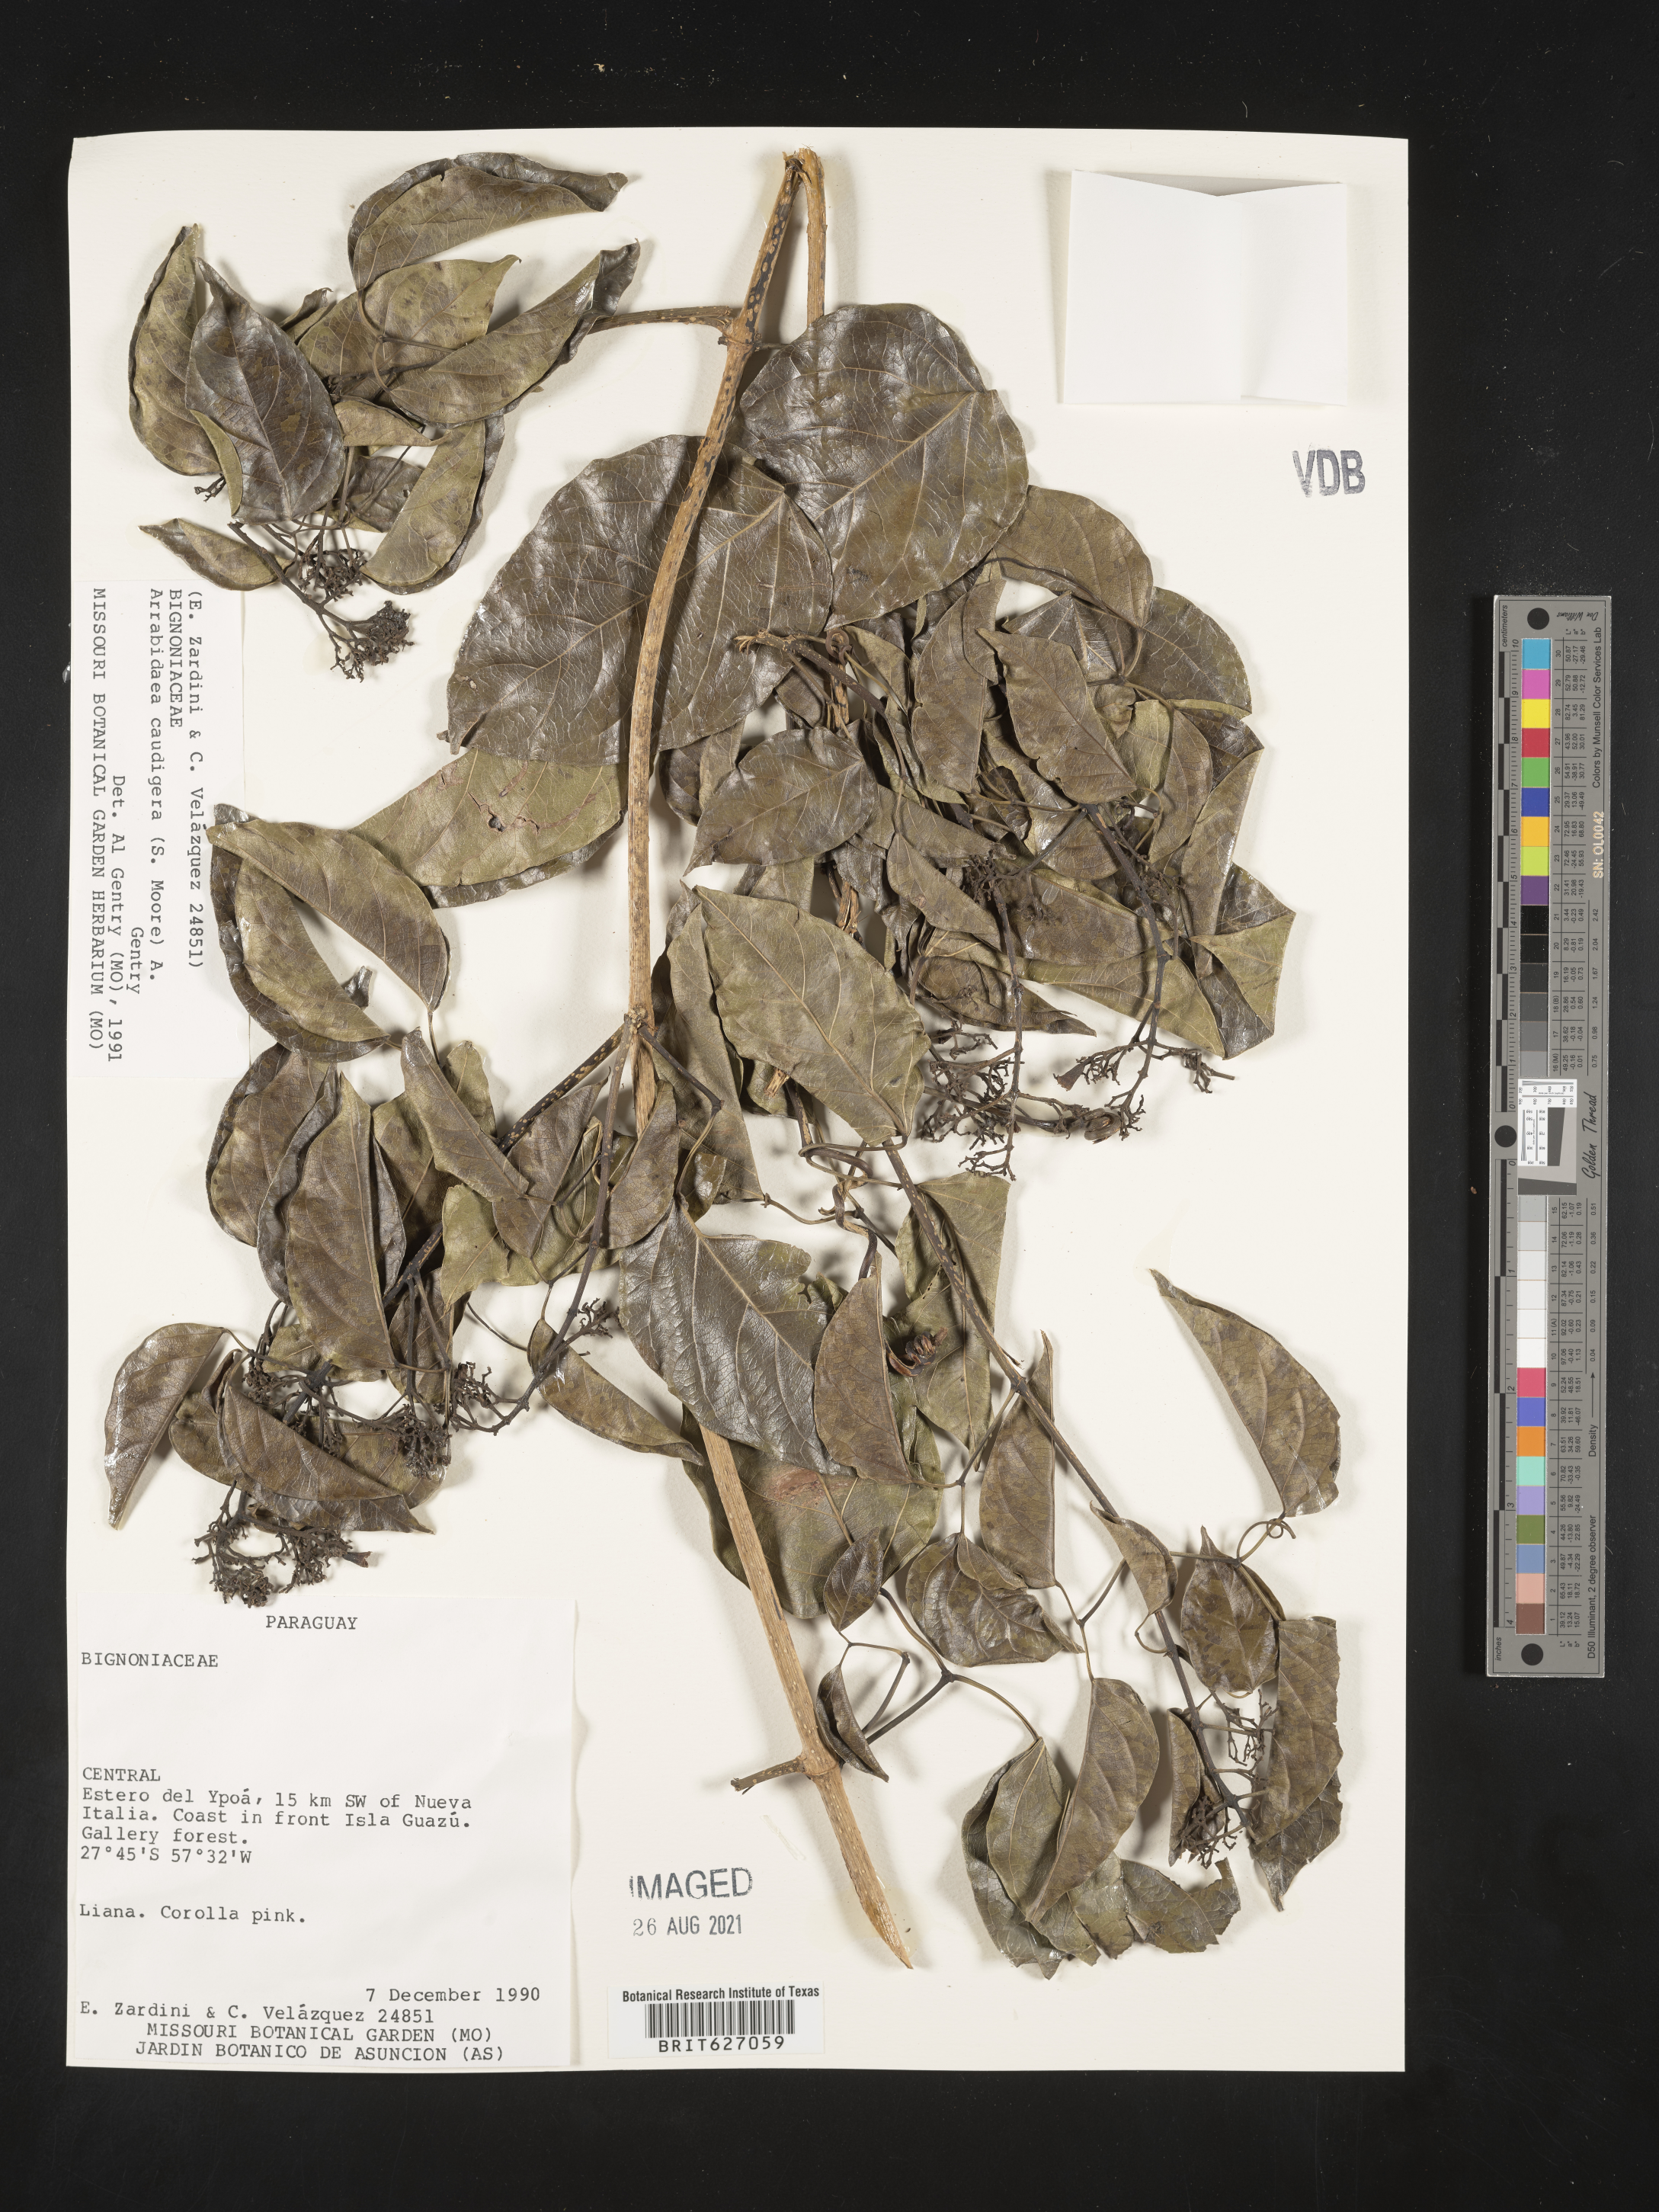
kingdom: Plantae
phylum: Tracheophyta
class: Magnoliopsida
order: Lamiales
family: Bignoniaceae
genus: Fridericia
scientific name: Fridericia caudigera
